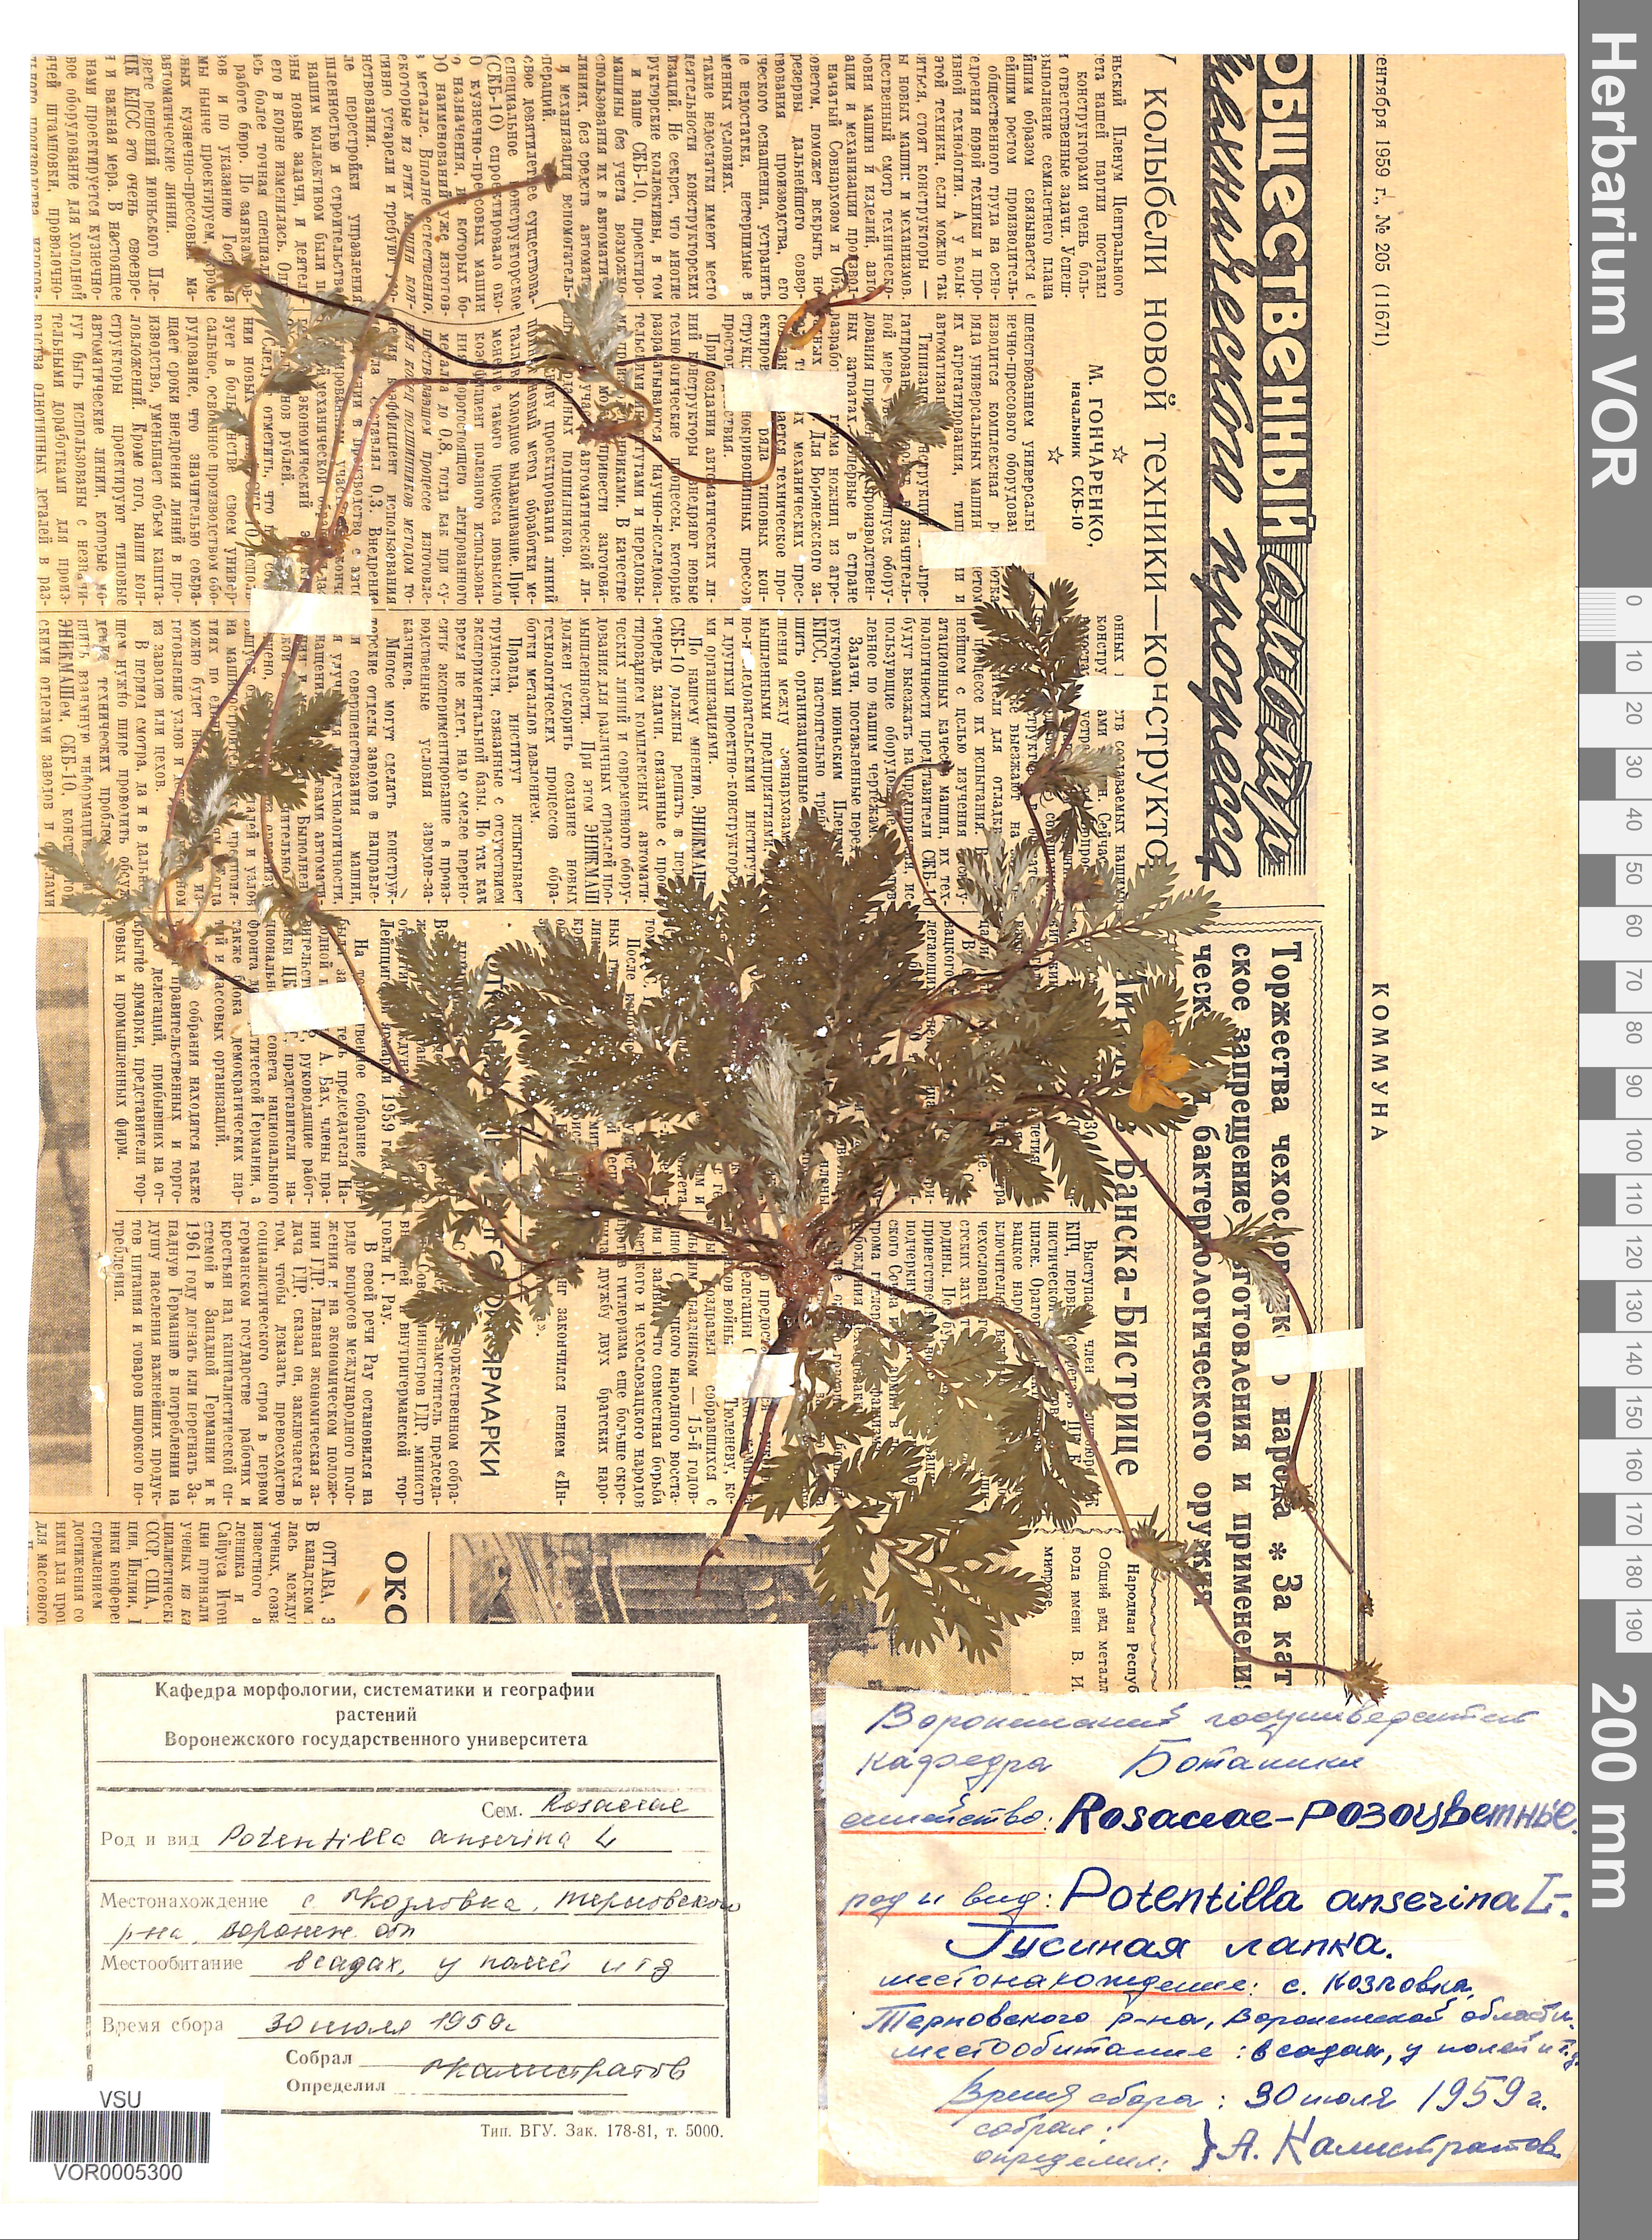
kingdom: Plantae
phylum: Tracheophyta
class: Magnoliopsida
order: Rosales
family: Rosaceae
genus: Argentina
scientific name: Argentina anserina
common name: Common silverweed
